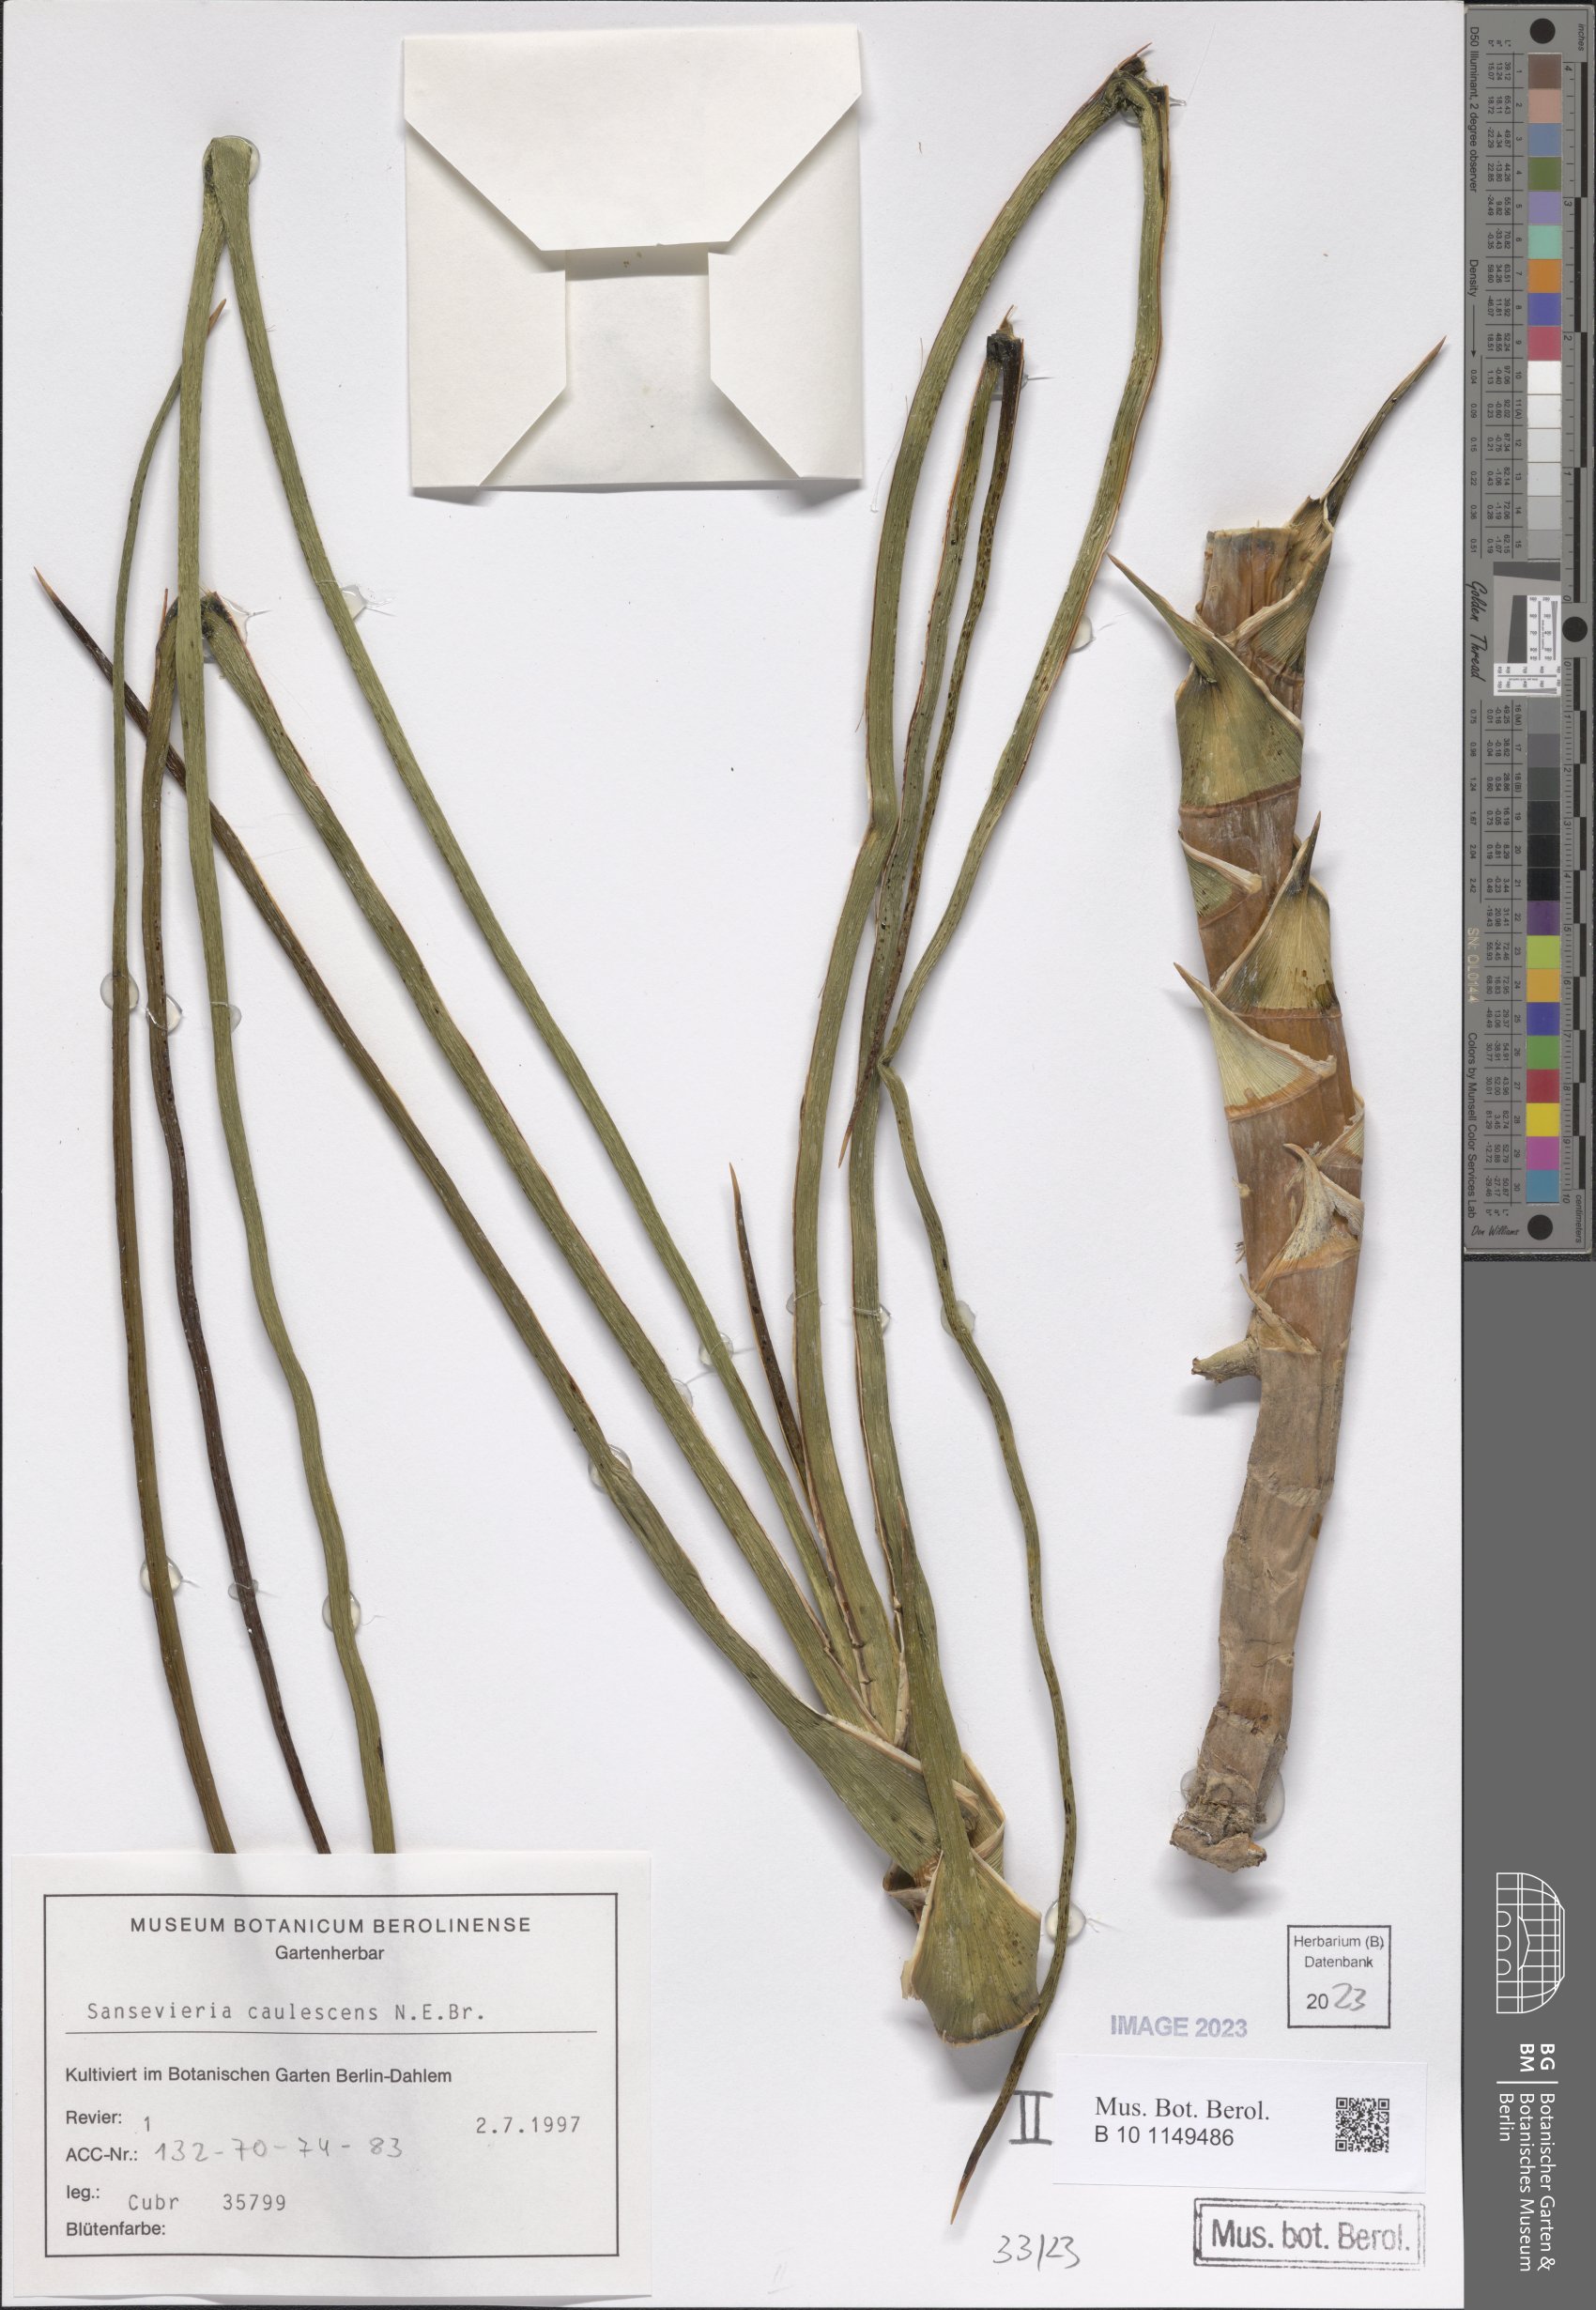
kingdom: Plantae
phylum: Tracheophyta
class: Liliopsida
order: Asparagales
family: Asparagaceae
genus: Dracaena
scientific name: Dracaena caulescens
